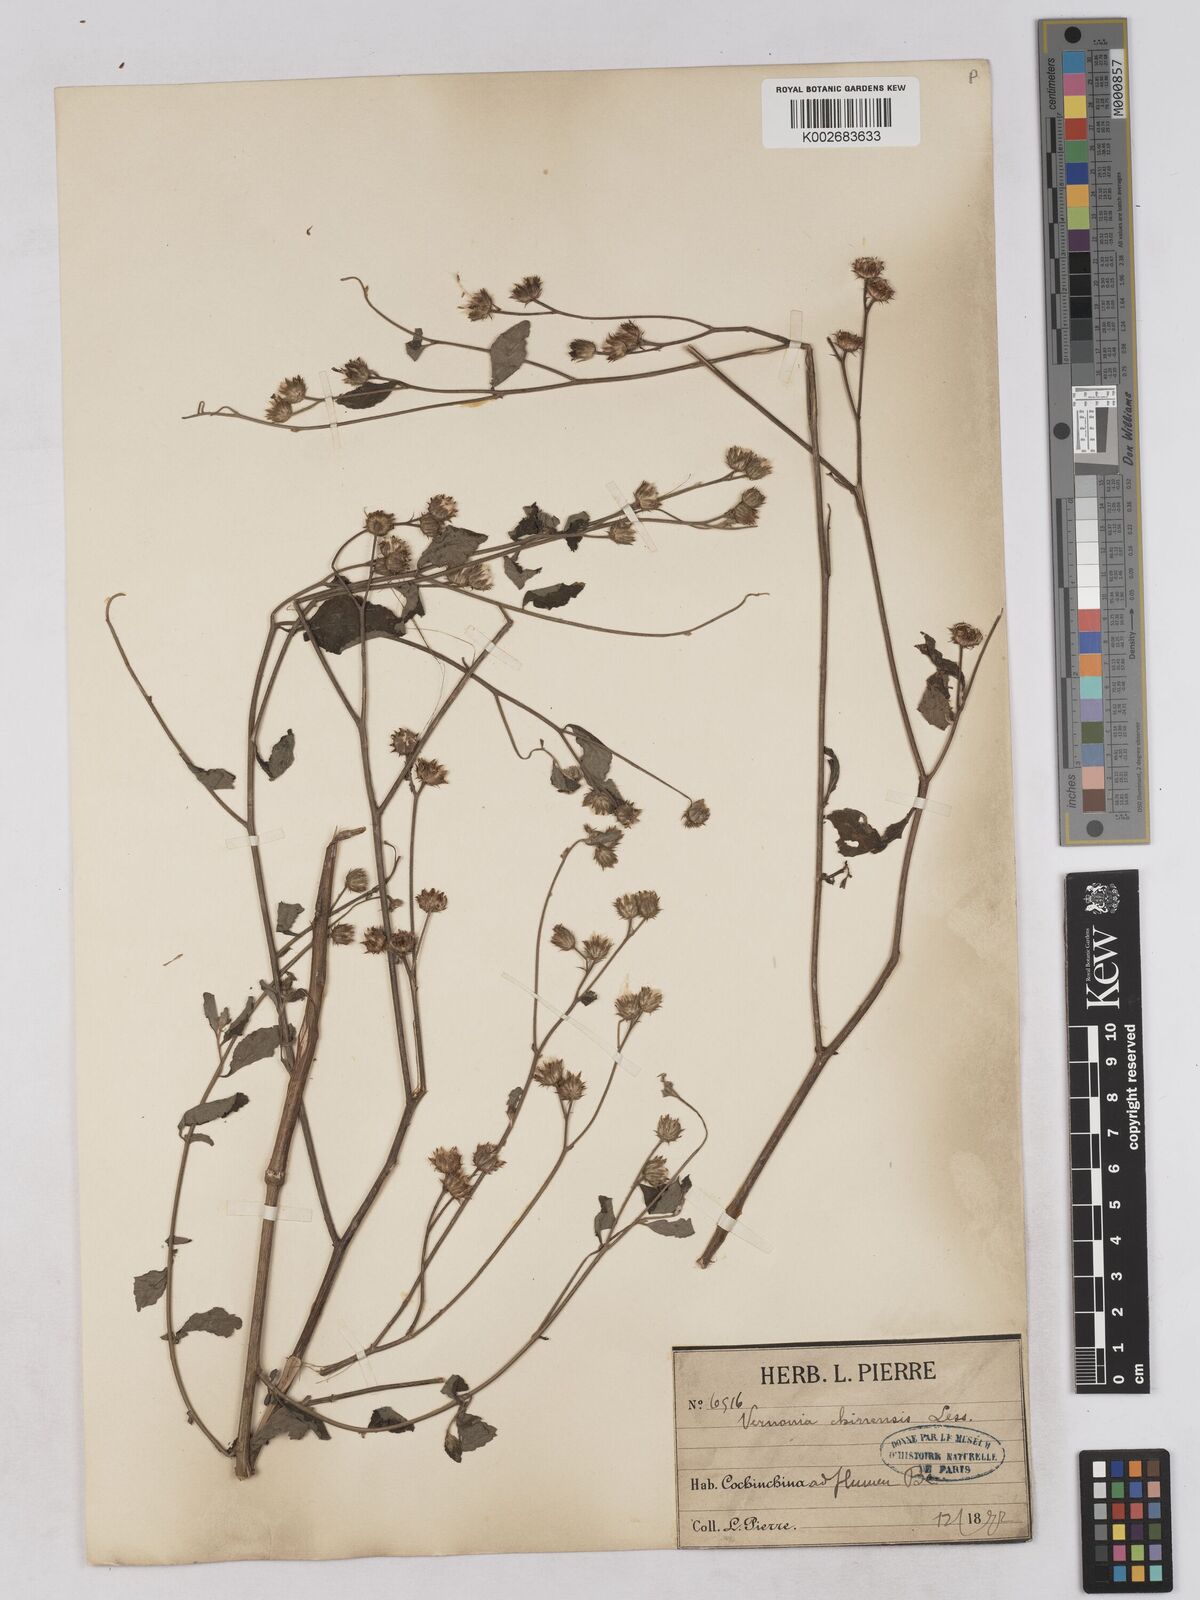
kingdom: Plantae
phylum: Tracheophyta
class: Magnoliopsida
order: Asterales
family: Asteraceae
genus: Cyanthillium
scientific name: Cyanthillium patulum
